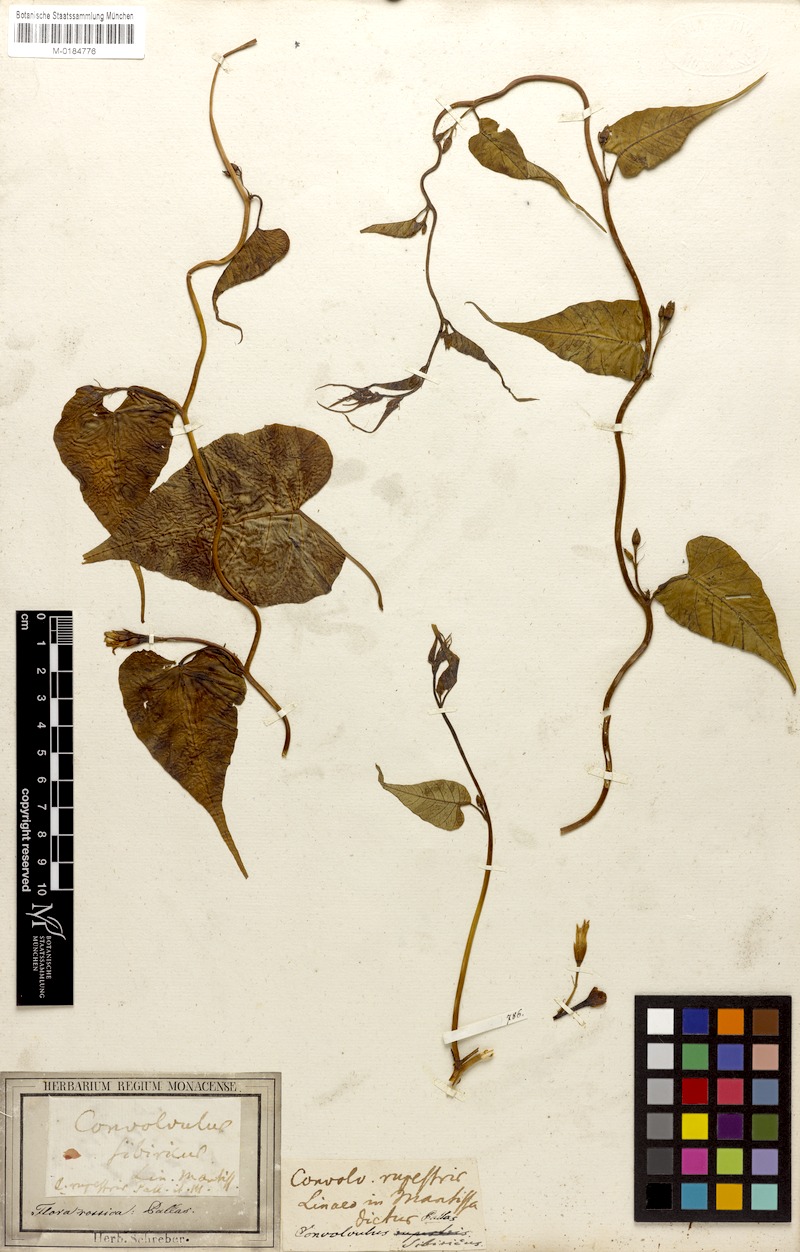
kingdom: Plantae
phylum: Tracheophyta
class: Magnoliopsida
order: Solanales
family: Convolvulaceae
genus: Merremia
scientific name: Merremia sibirica
